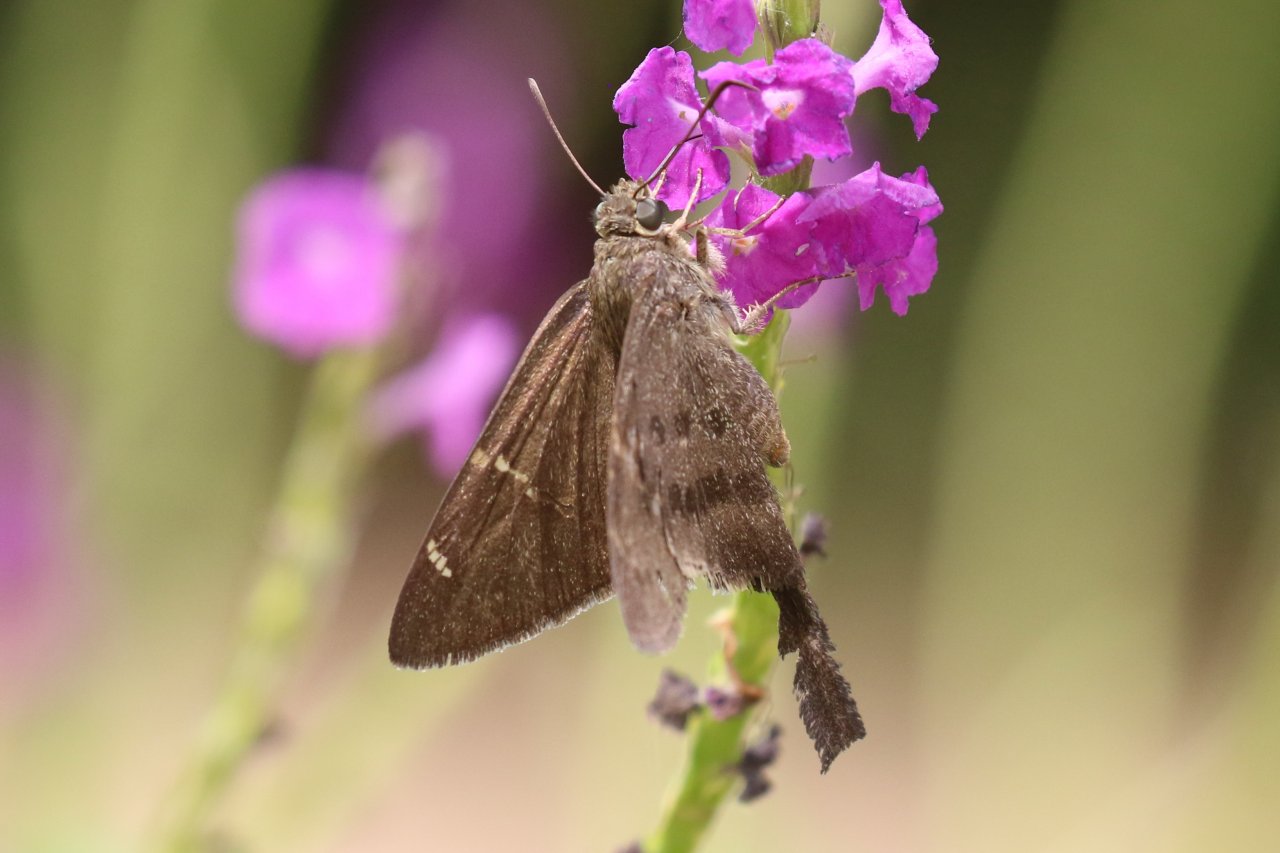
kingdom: Animalia
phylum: Arthropoda
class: Insecta
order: Lepidoptera
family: Hesperiidae
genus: Urbanus
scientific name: Urbanus procne
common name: Brown Longtail
